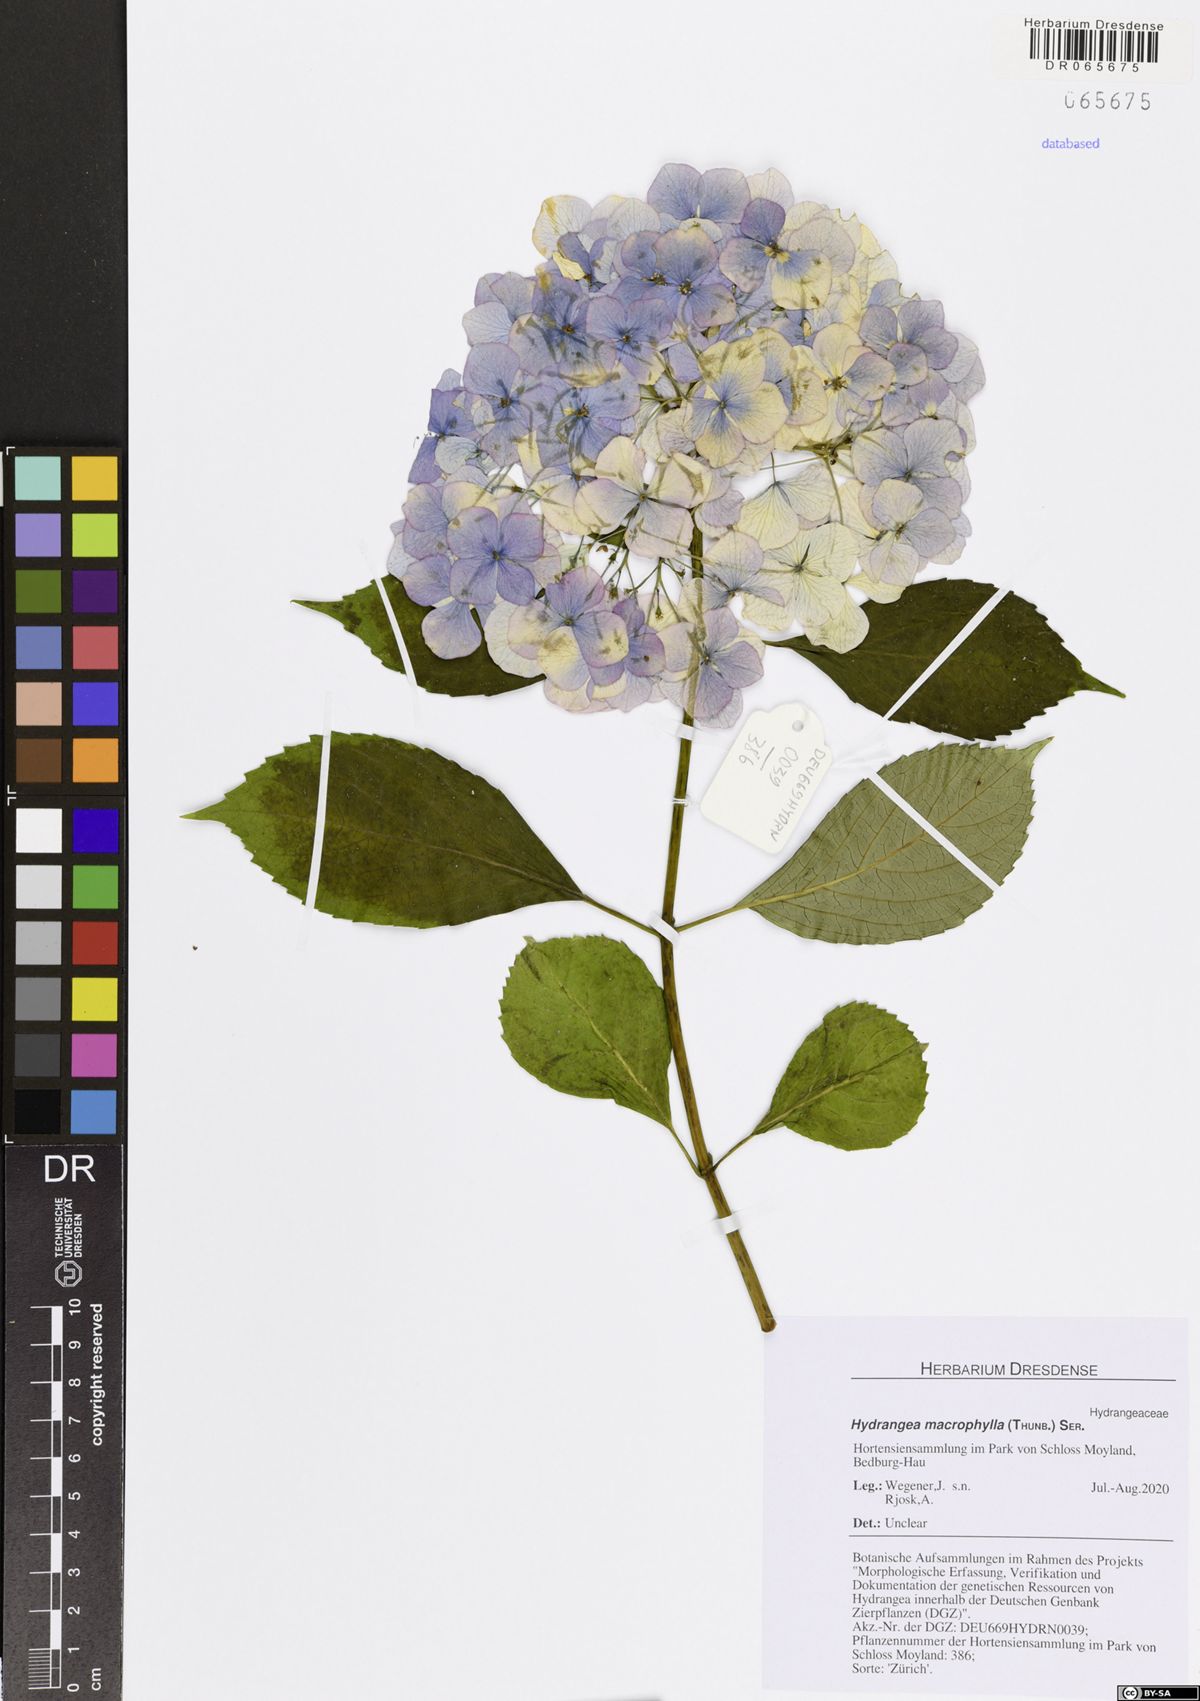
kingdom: Plantae
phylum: Tracheophyta
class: Magnoliopsida
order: Cornales
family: Hydrangeaceae
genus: Hydrangea
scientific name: Hydrangea macrophylla
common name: Hydrangea
